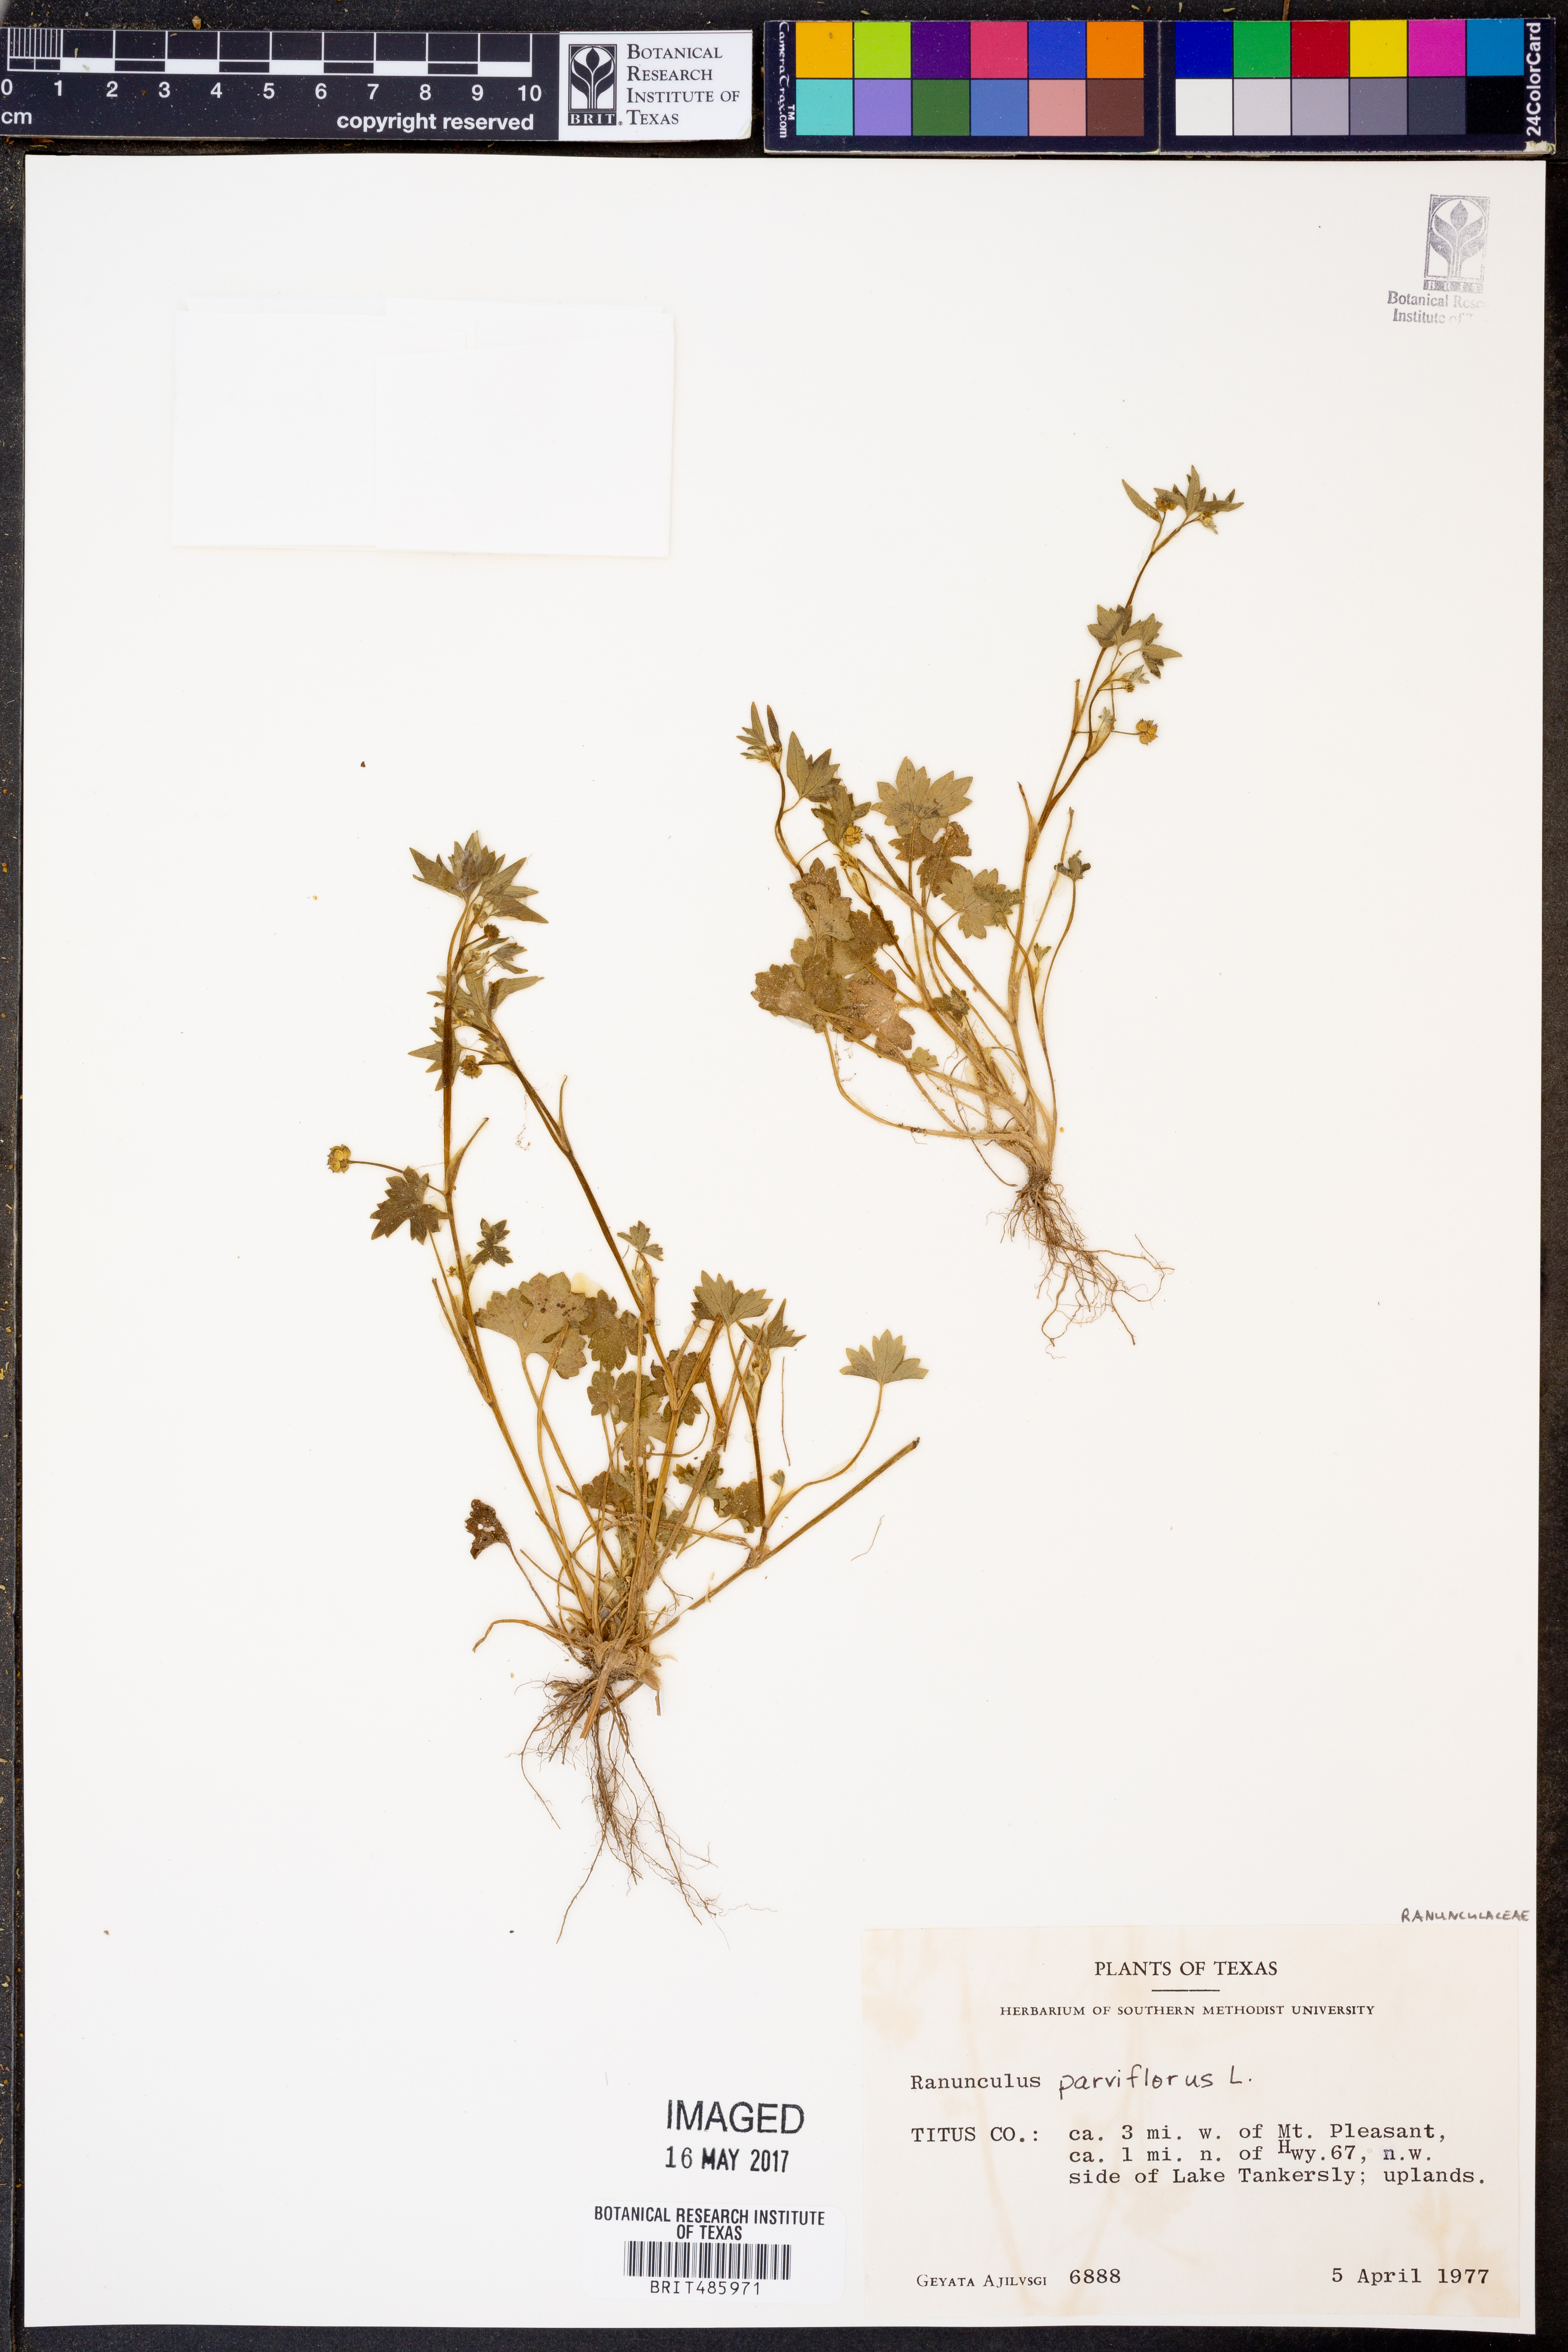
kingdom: Plantae
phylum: Tracheophyta
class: Magnoliopsida
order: Ranunculales
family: Ranunculaceae
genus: Ranunculus
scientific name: Ranunculus parviflorus
